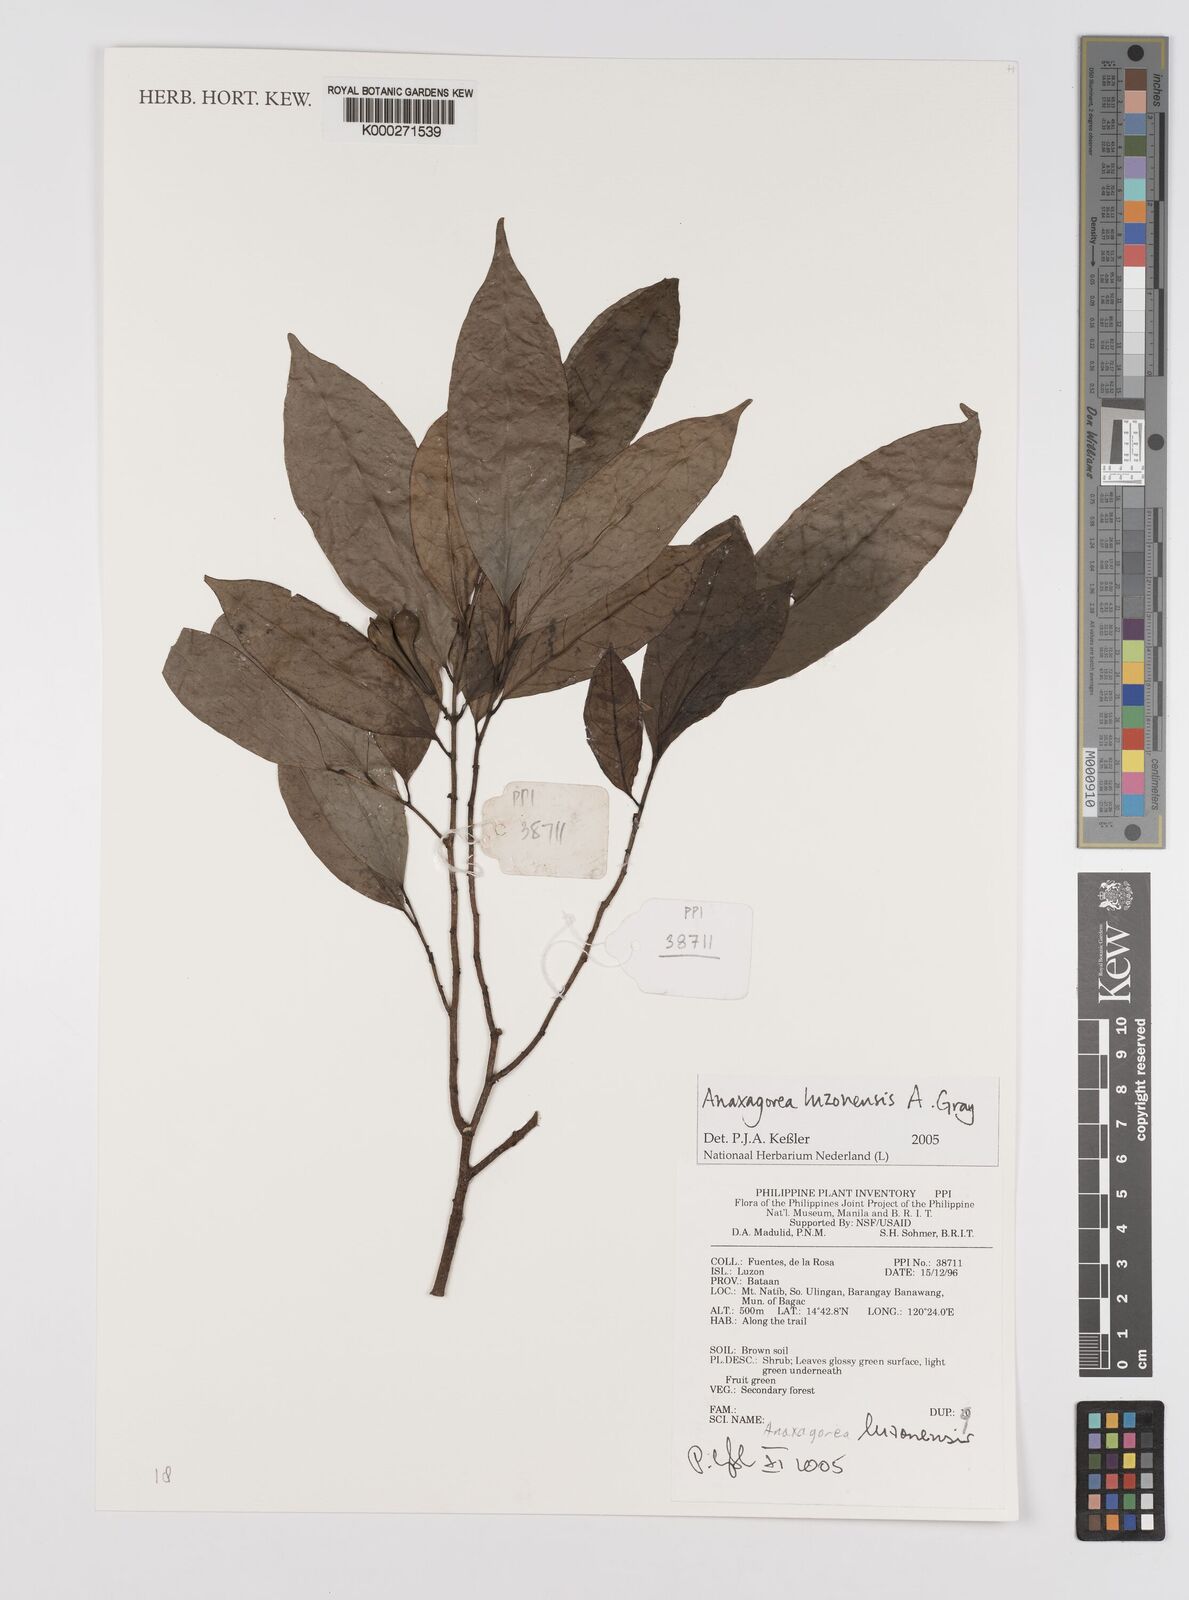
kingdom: Plantae
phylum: Tracheophyta
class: Magnoliopsida
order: Magnoliales
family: Annonaceae
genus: Anaxagorea
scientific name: Anaxagorea luzonensis
